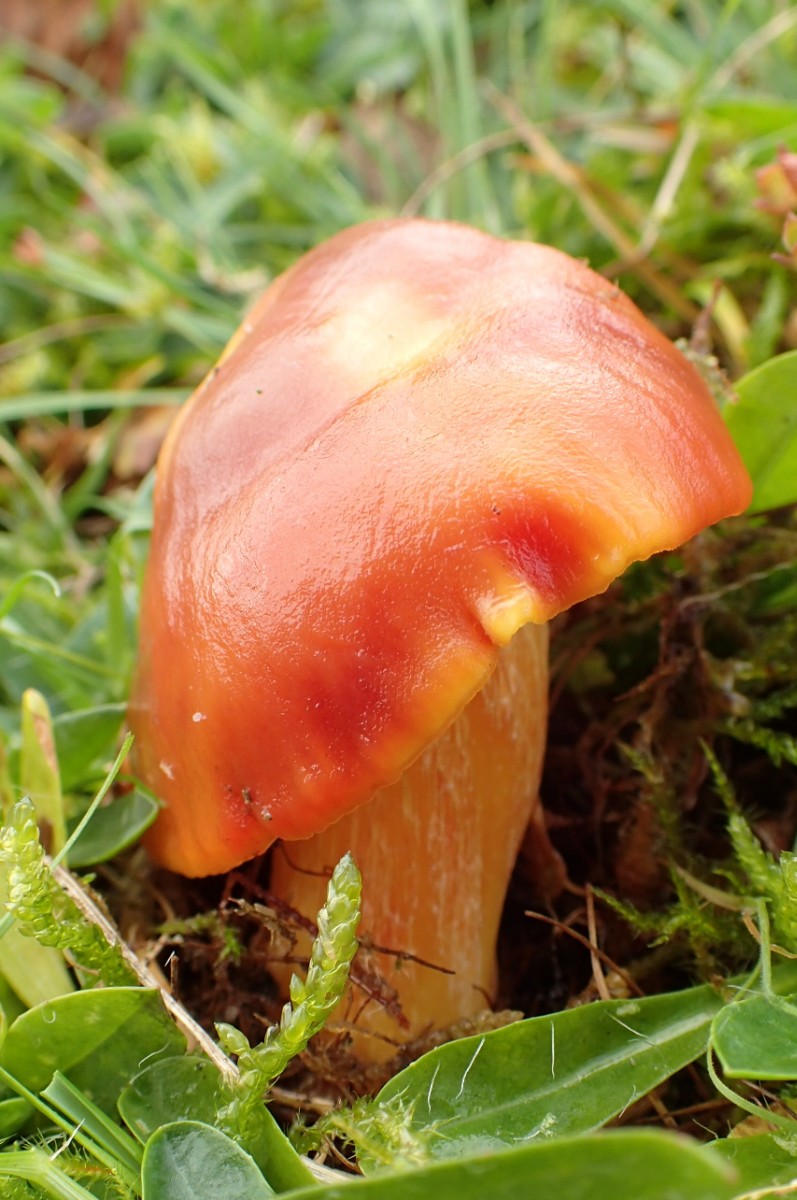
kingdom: Fungi
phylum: Basidiomycota
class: Agaricomycetes
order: Agaricales
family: Hygrophoraceae
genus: Hygrocybe
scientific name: Hygrocybe punicea
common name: skarlagen-vokshat
